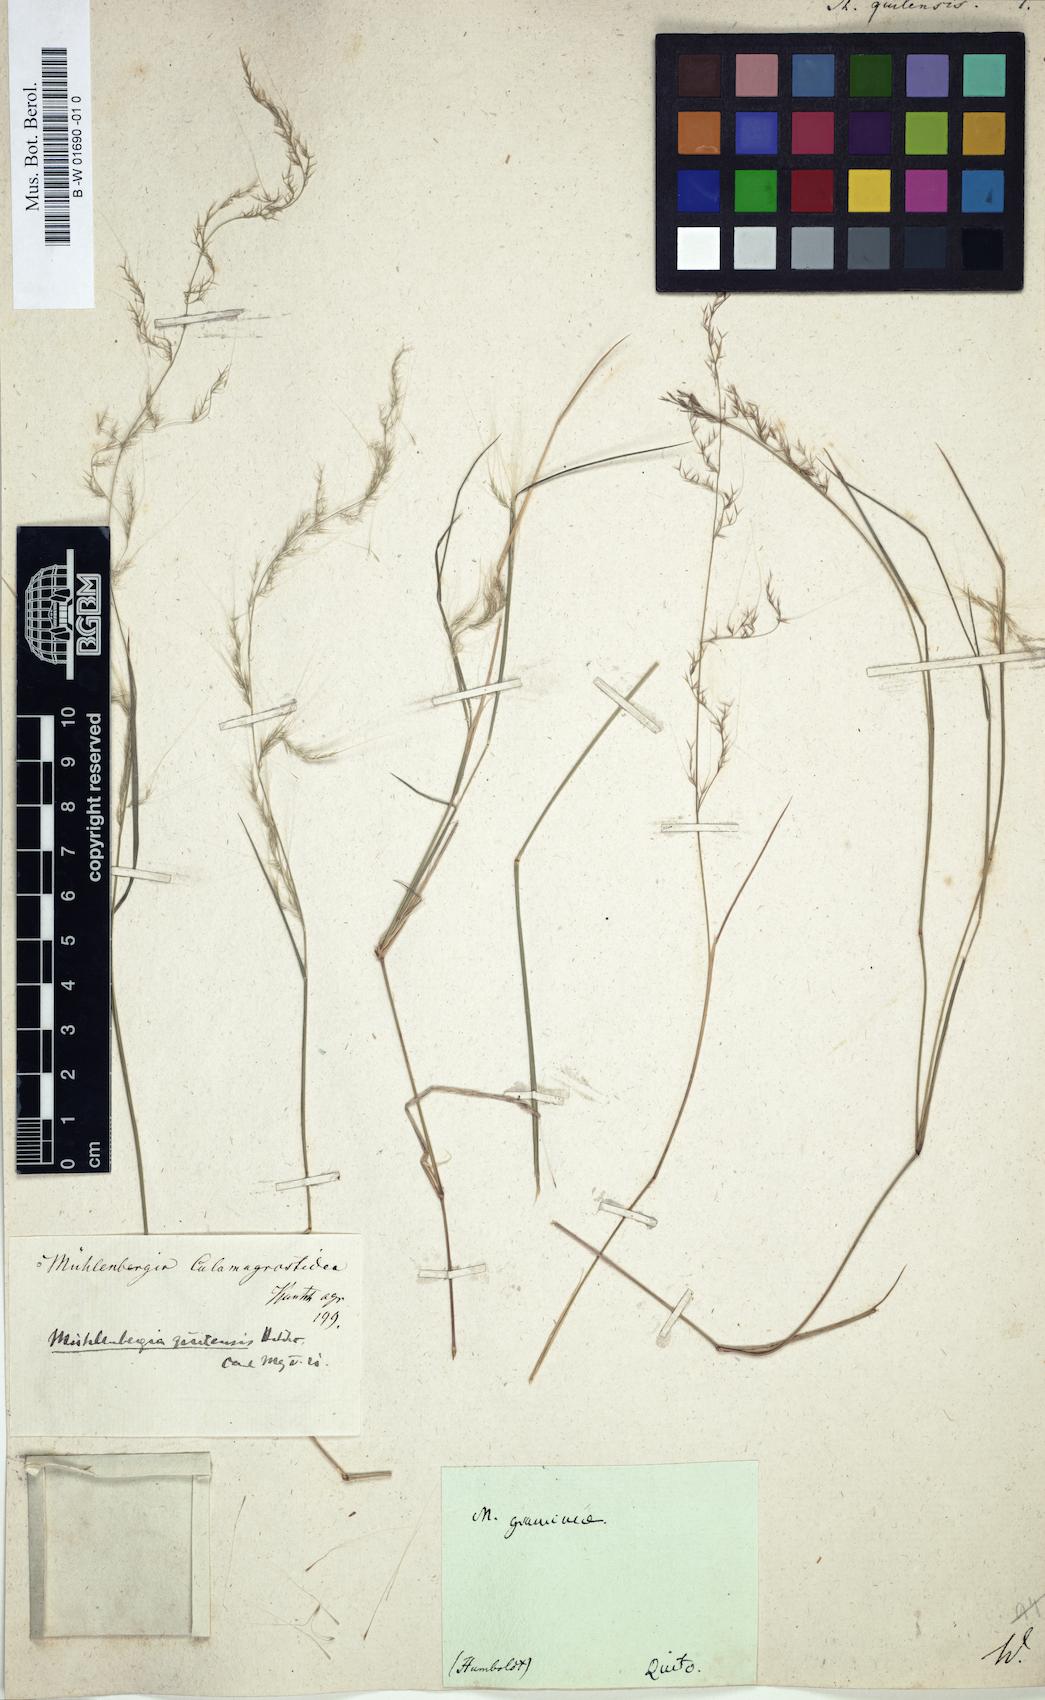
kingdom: Plantae
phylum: Tracheophyta
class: Liliopsida
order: Poales
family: Poaceae
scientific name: Poaceae
